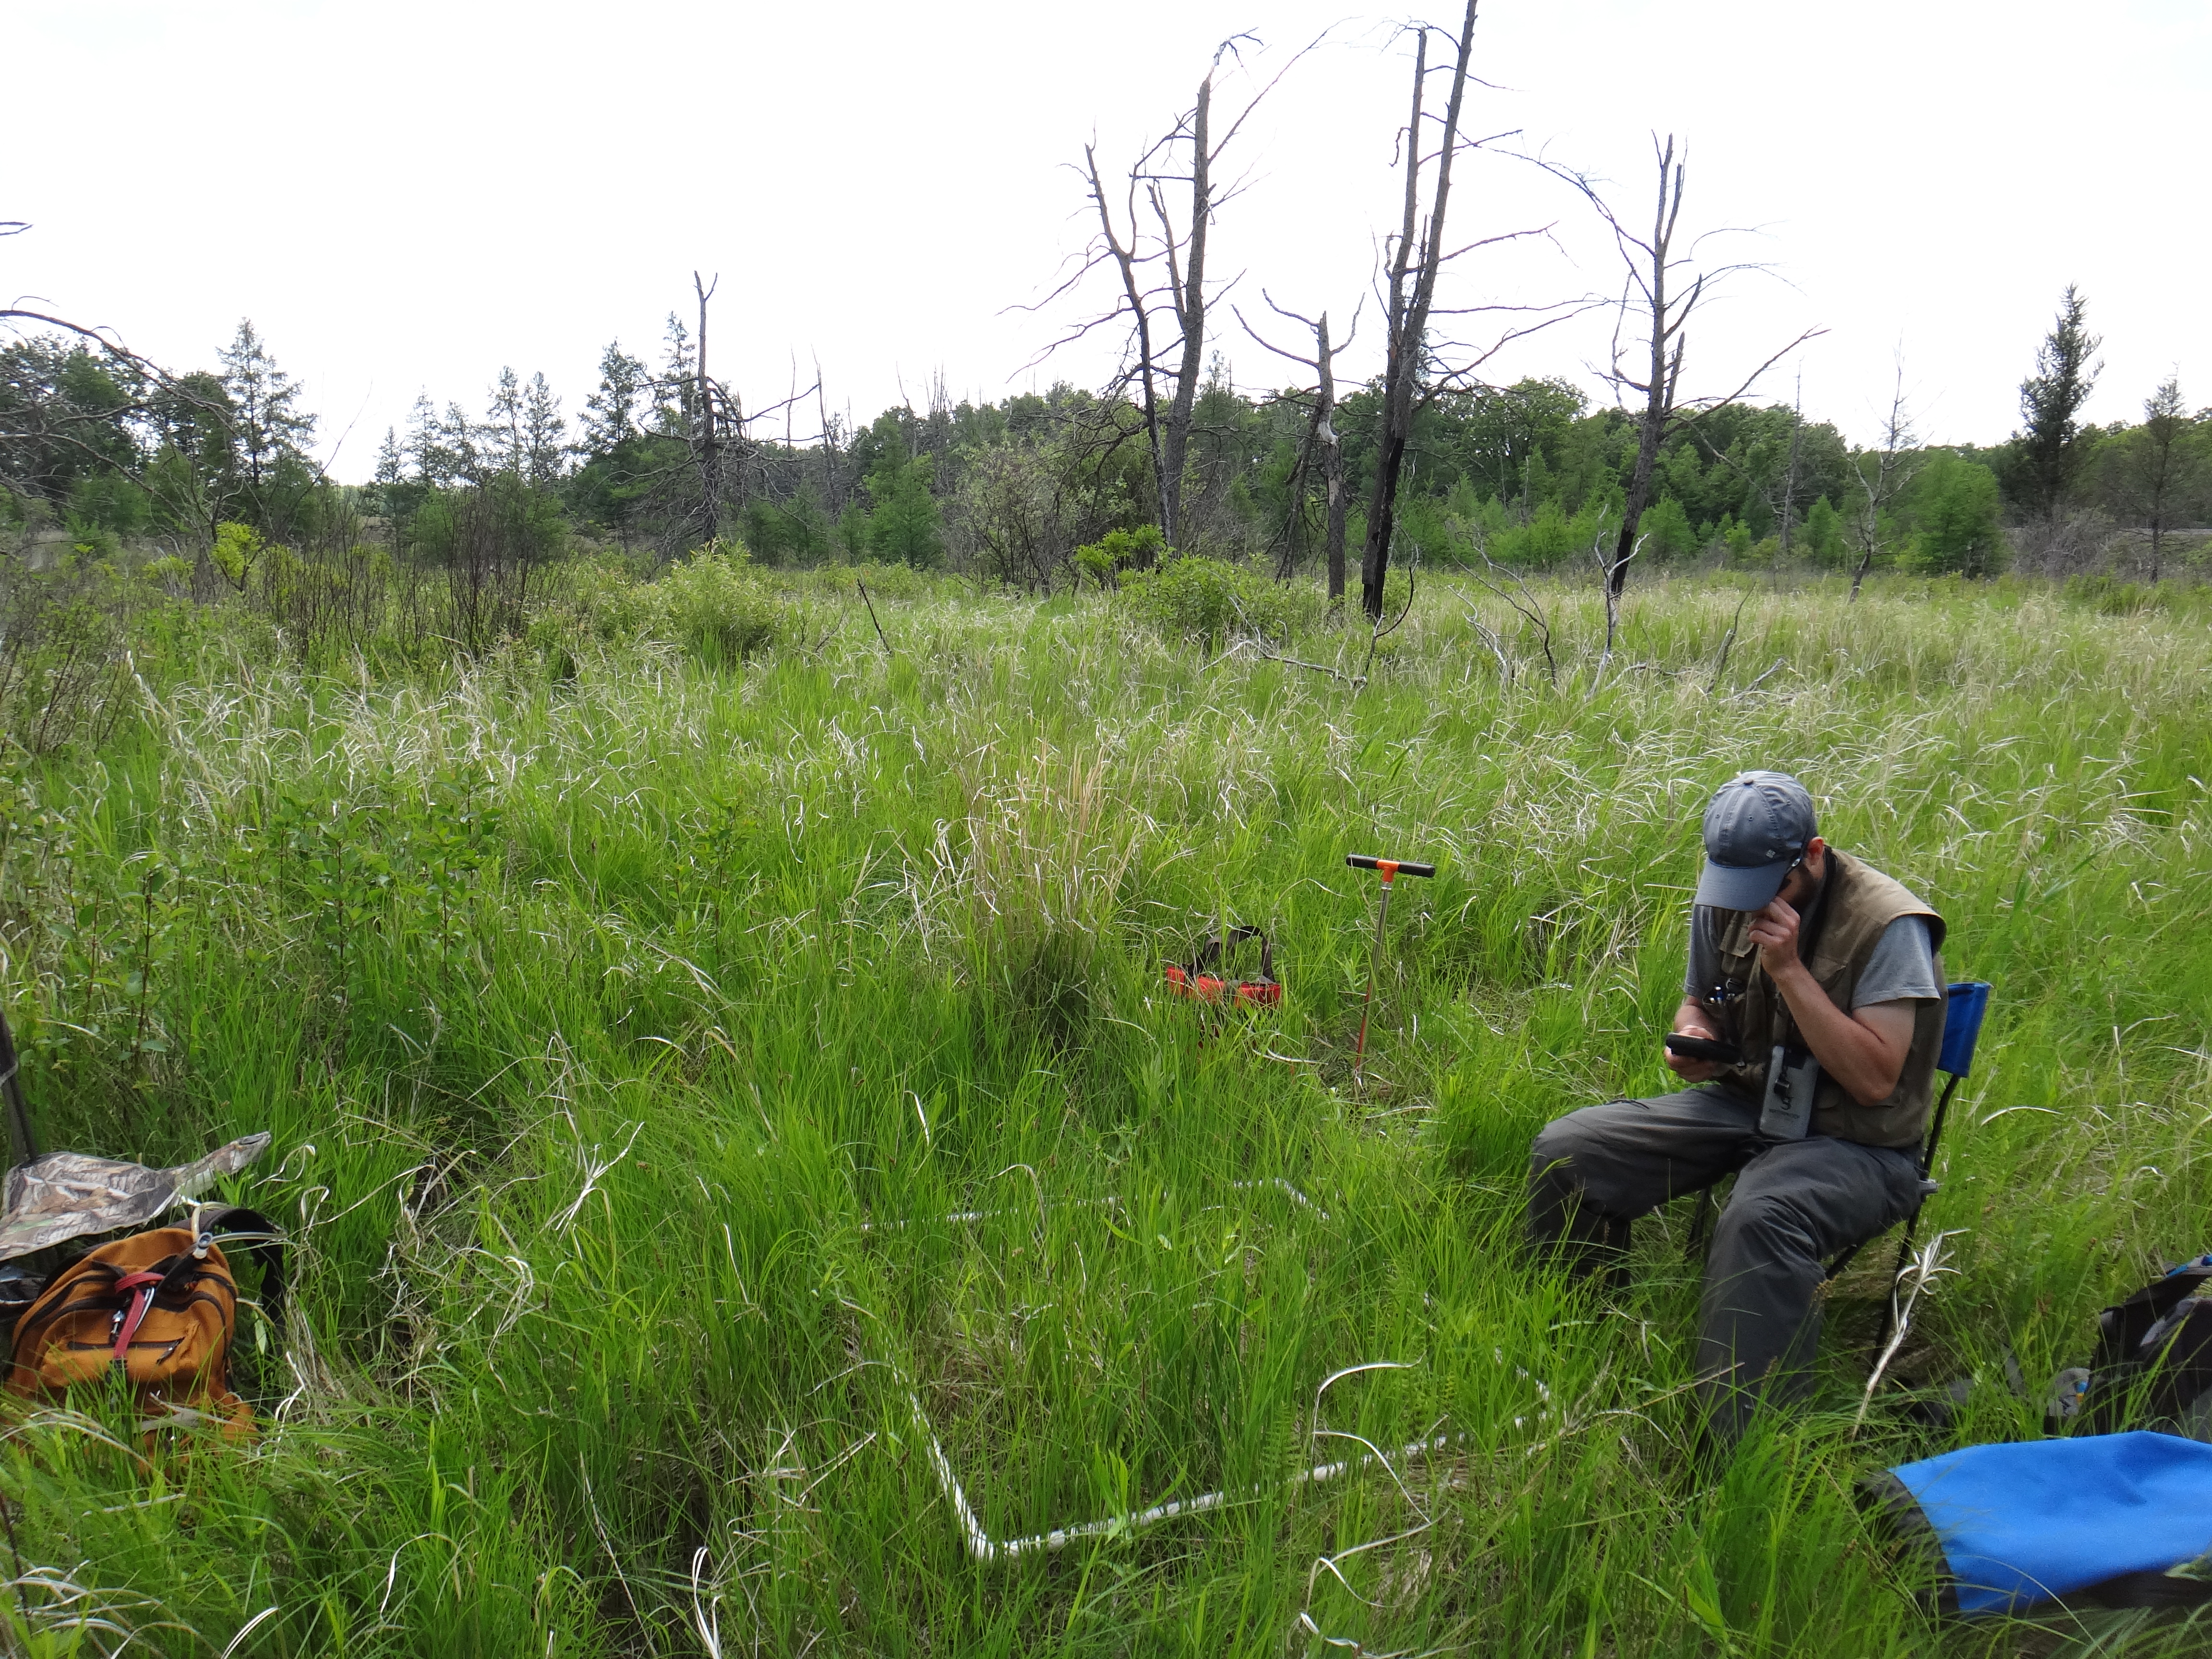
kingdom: Plantae
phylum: Tracheophyta
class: Liliopsida
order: Poales
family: Cyperaceae
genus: Carex
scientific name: Carex lasiocarpa
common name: Slender sedge
